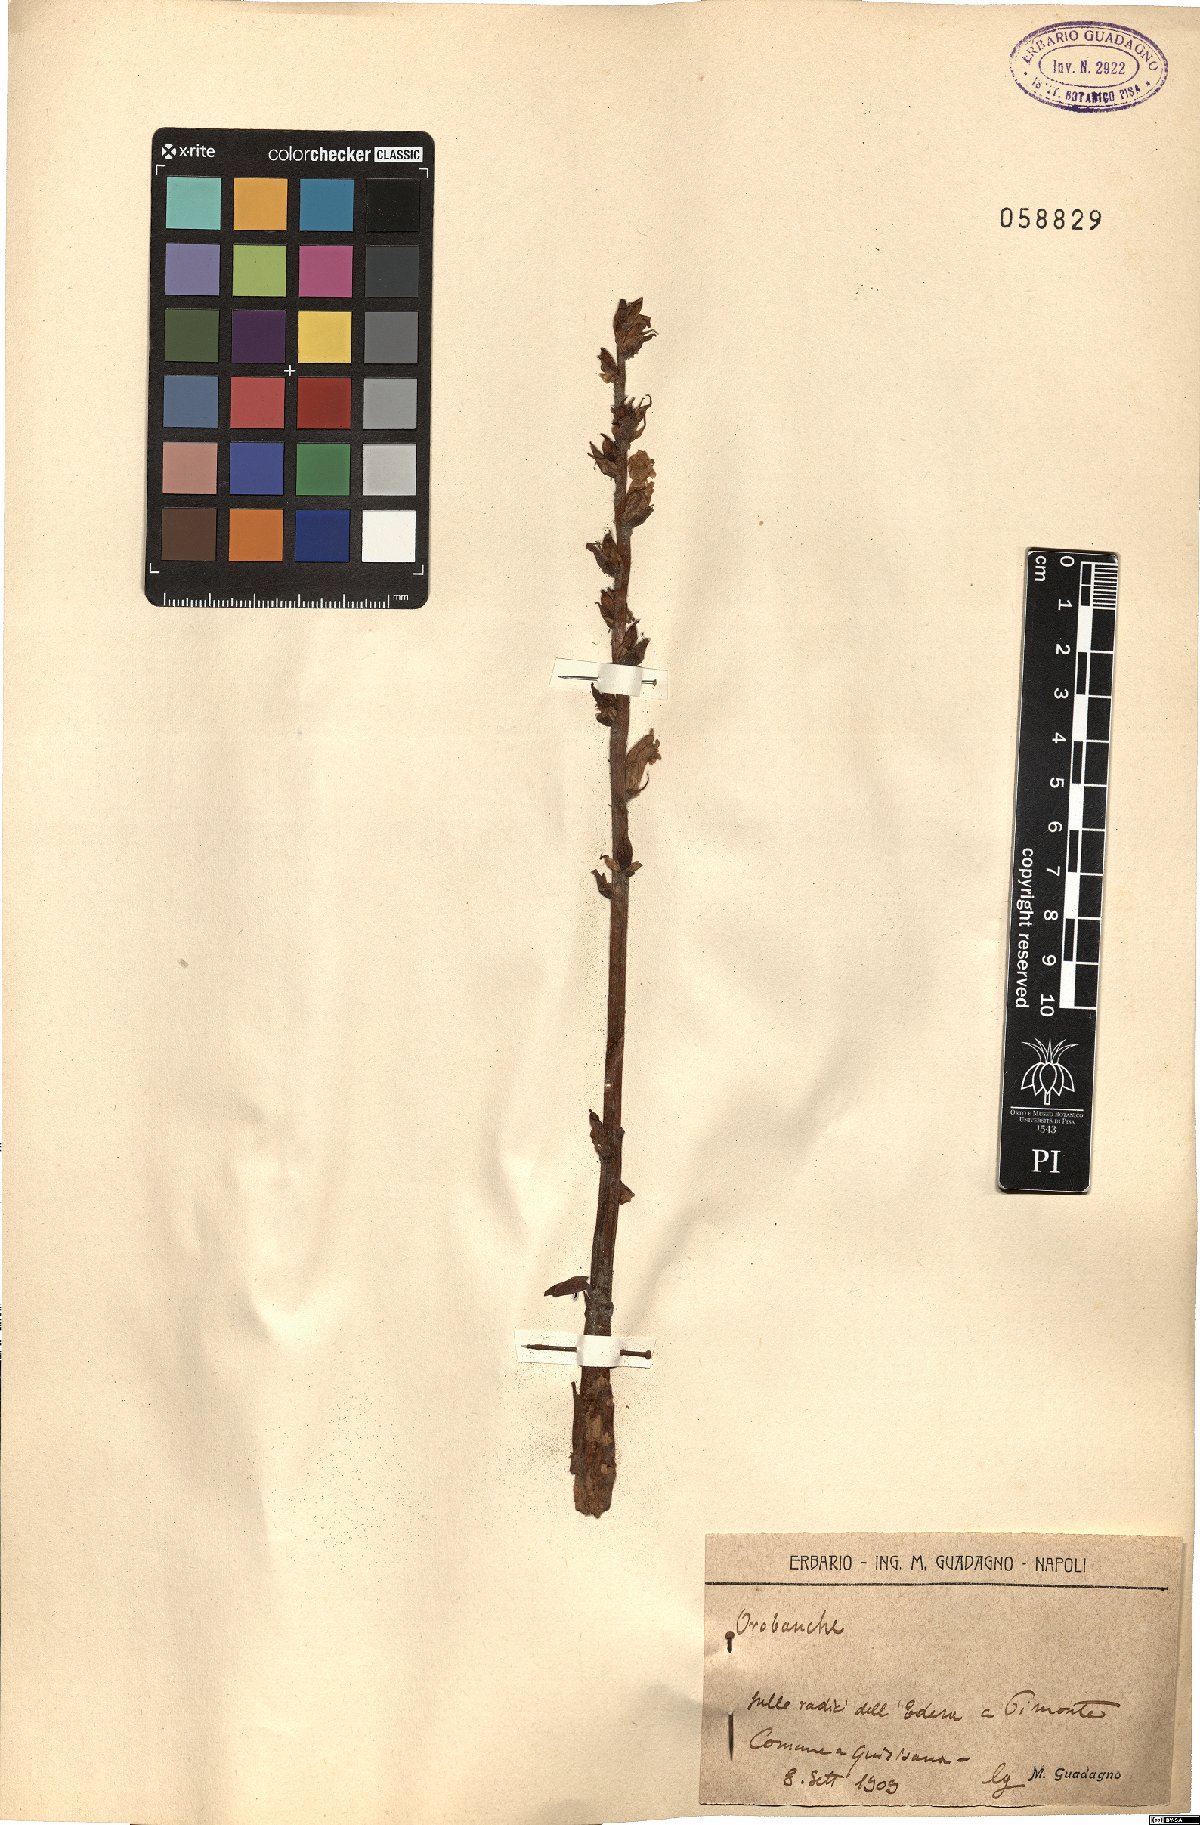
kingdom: Plantae
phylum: Tracheophyta
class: Magnoliopsida
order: Lamiales
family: Orobanchaceae
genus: Orobanche
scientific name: Orobanche
